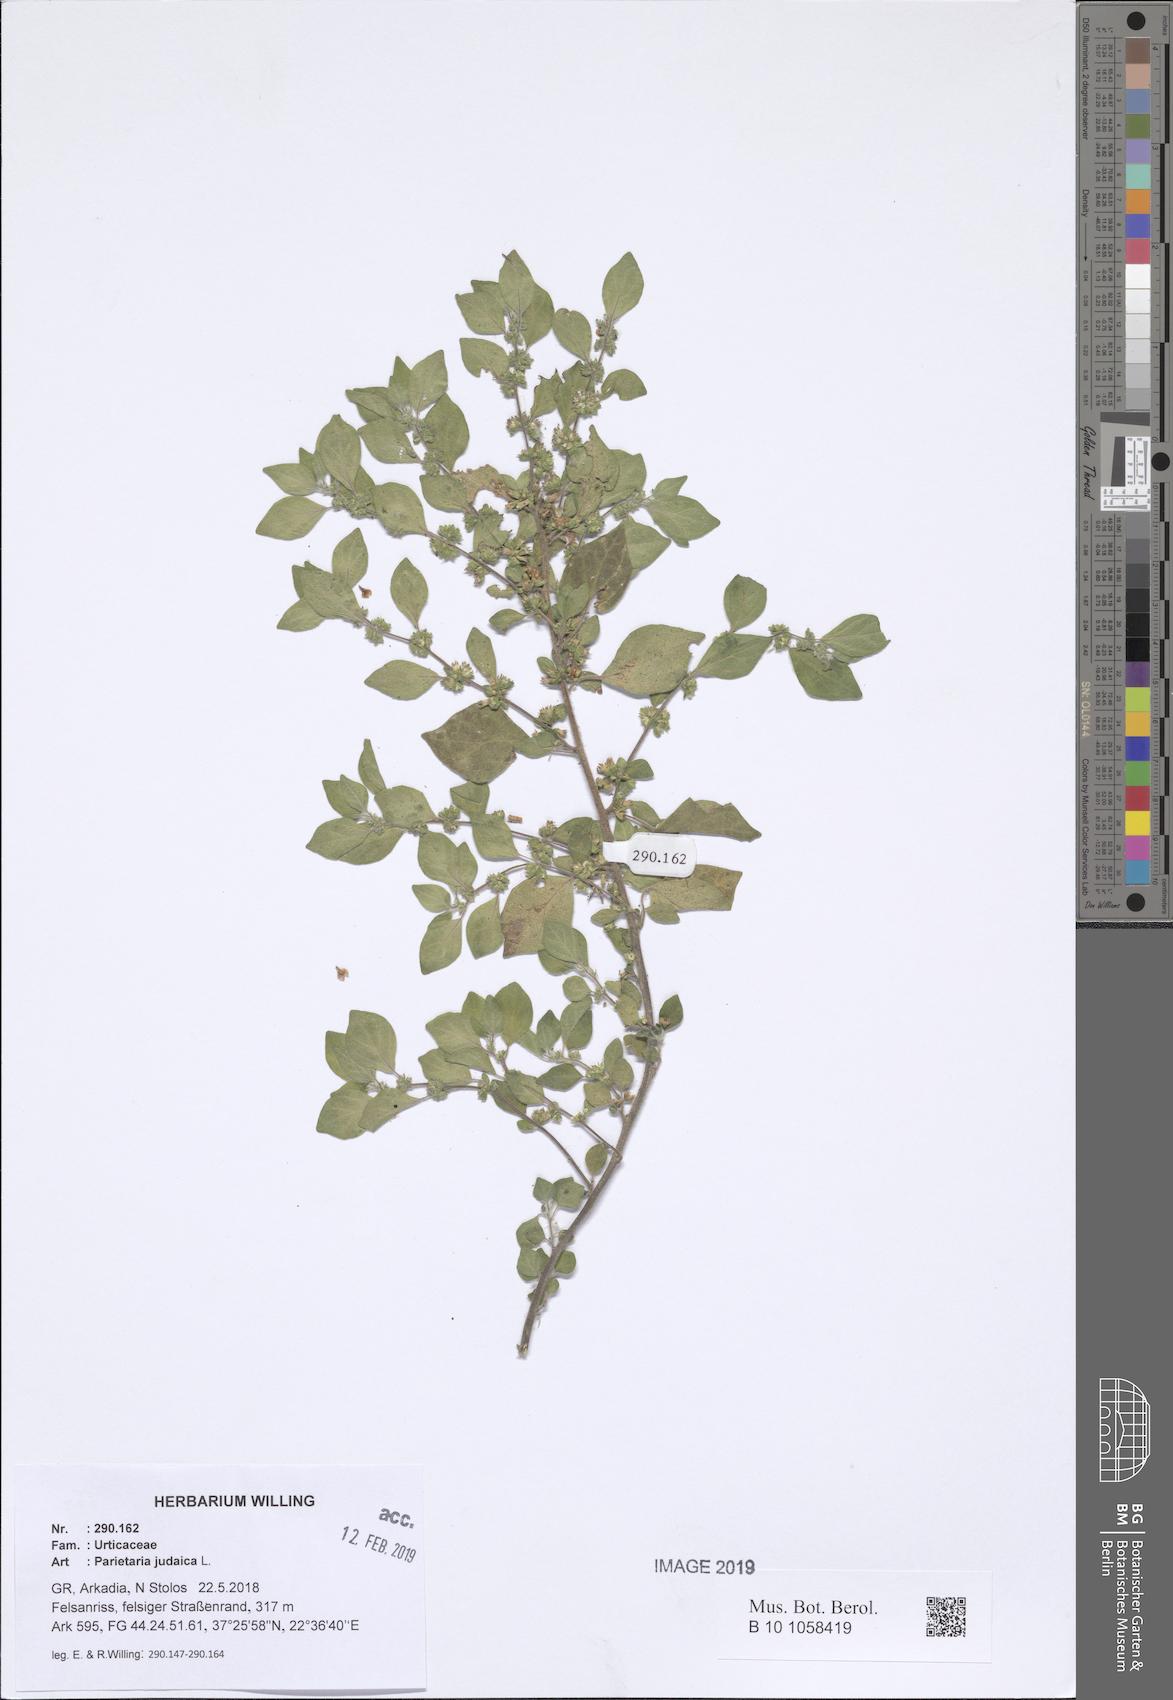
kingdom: Plantae
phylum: Tracheophyta
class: Magnoliopsida
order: Rosales
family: Urticaceae
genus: Parietaria
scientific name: Parietaria judaica
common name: Pellitory-of-the-wall
